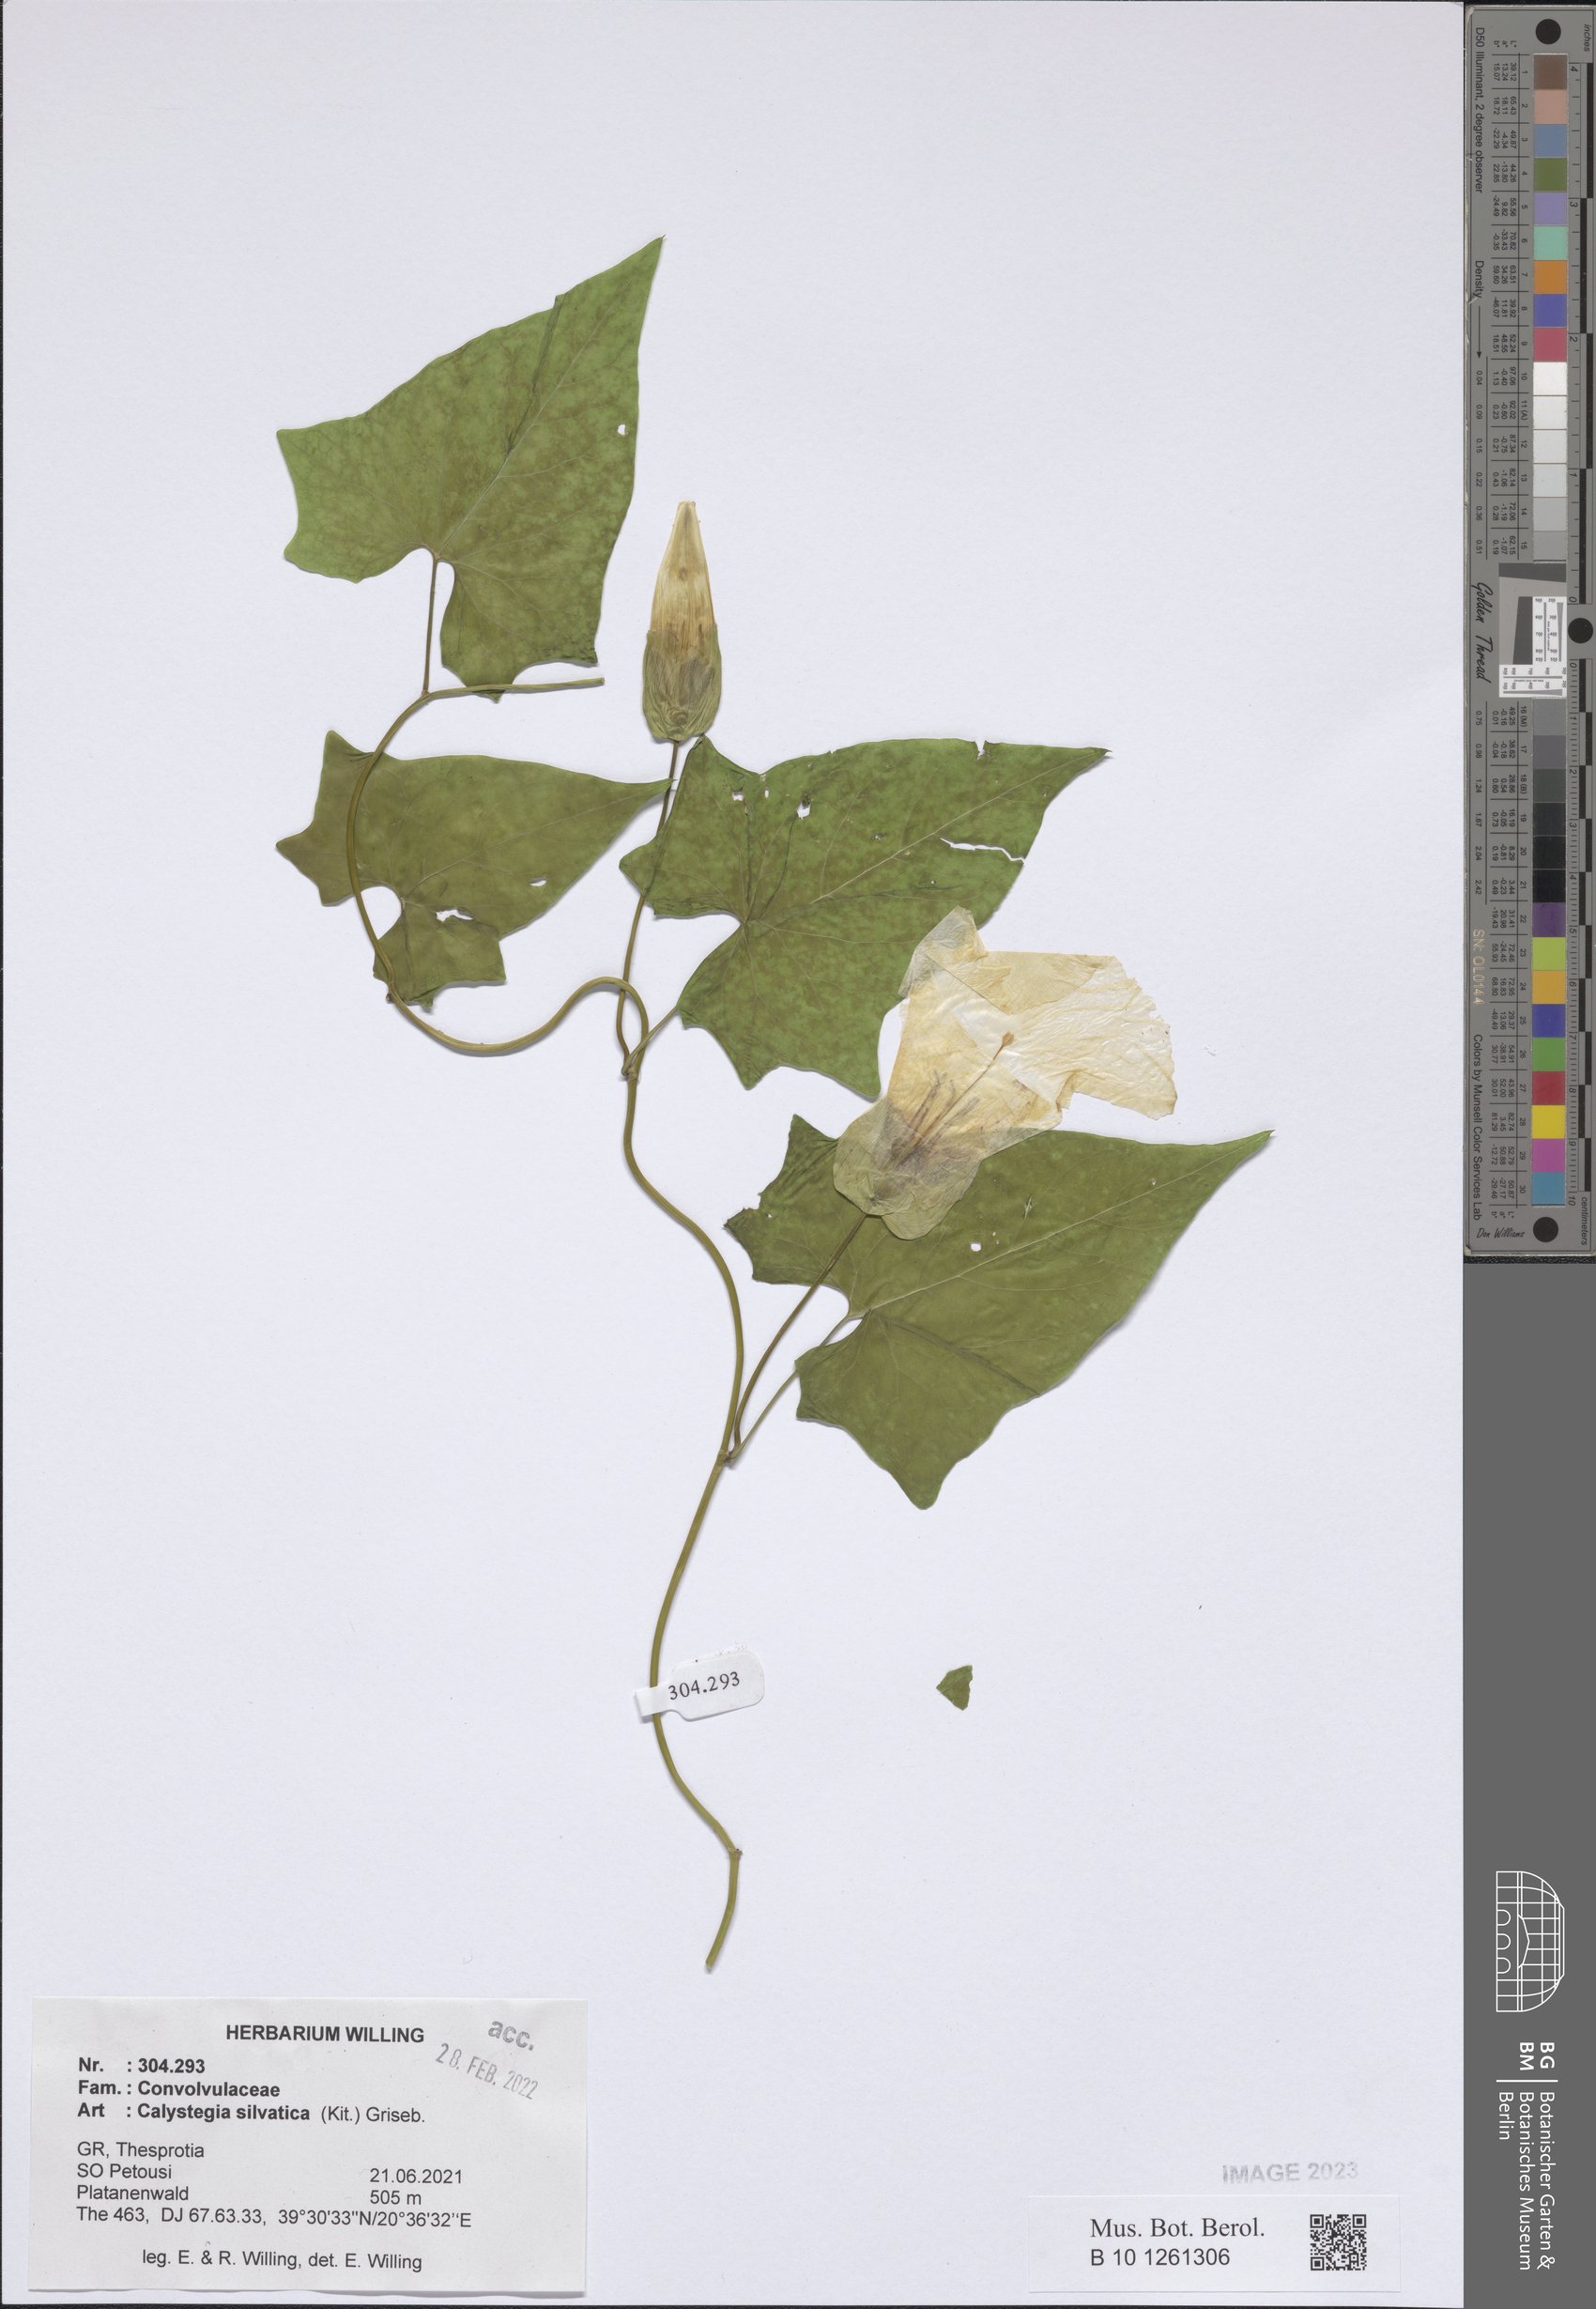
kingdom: Plantae
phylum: Tracheophyta
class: Magnoliopsida
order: Solanales
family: Convolvulaceae
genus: Calystegia
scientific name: Calystegia silvatica
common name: Large bindweed
